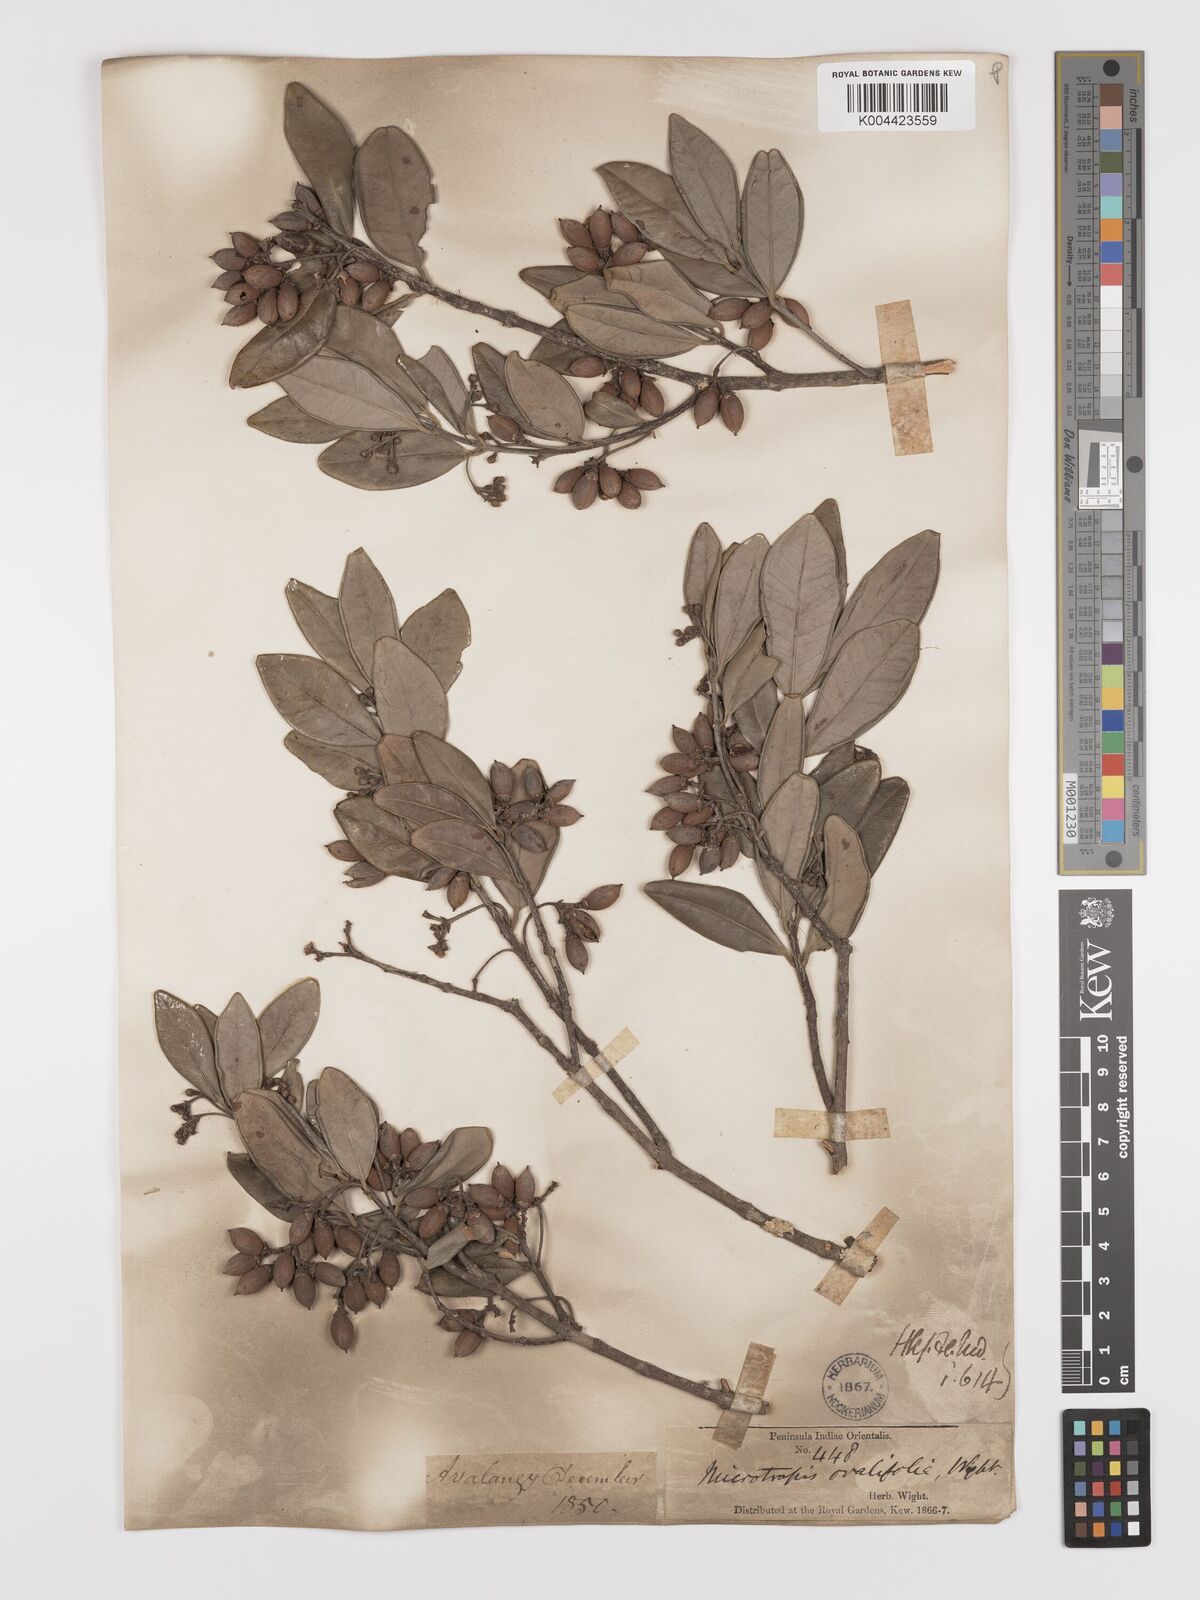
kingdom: Plantae
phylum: Tracheophyta
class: Magnoliopsida
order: Celastrales
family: Celastraceae
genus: Microtropis
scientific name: Microtropis microcarpa
